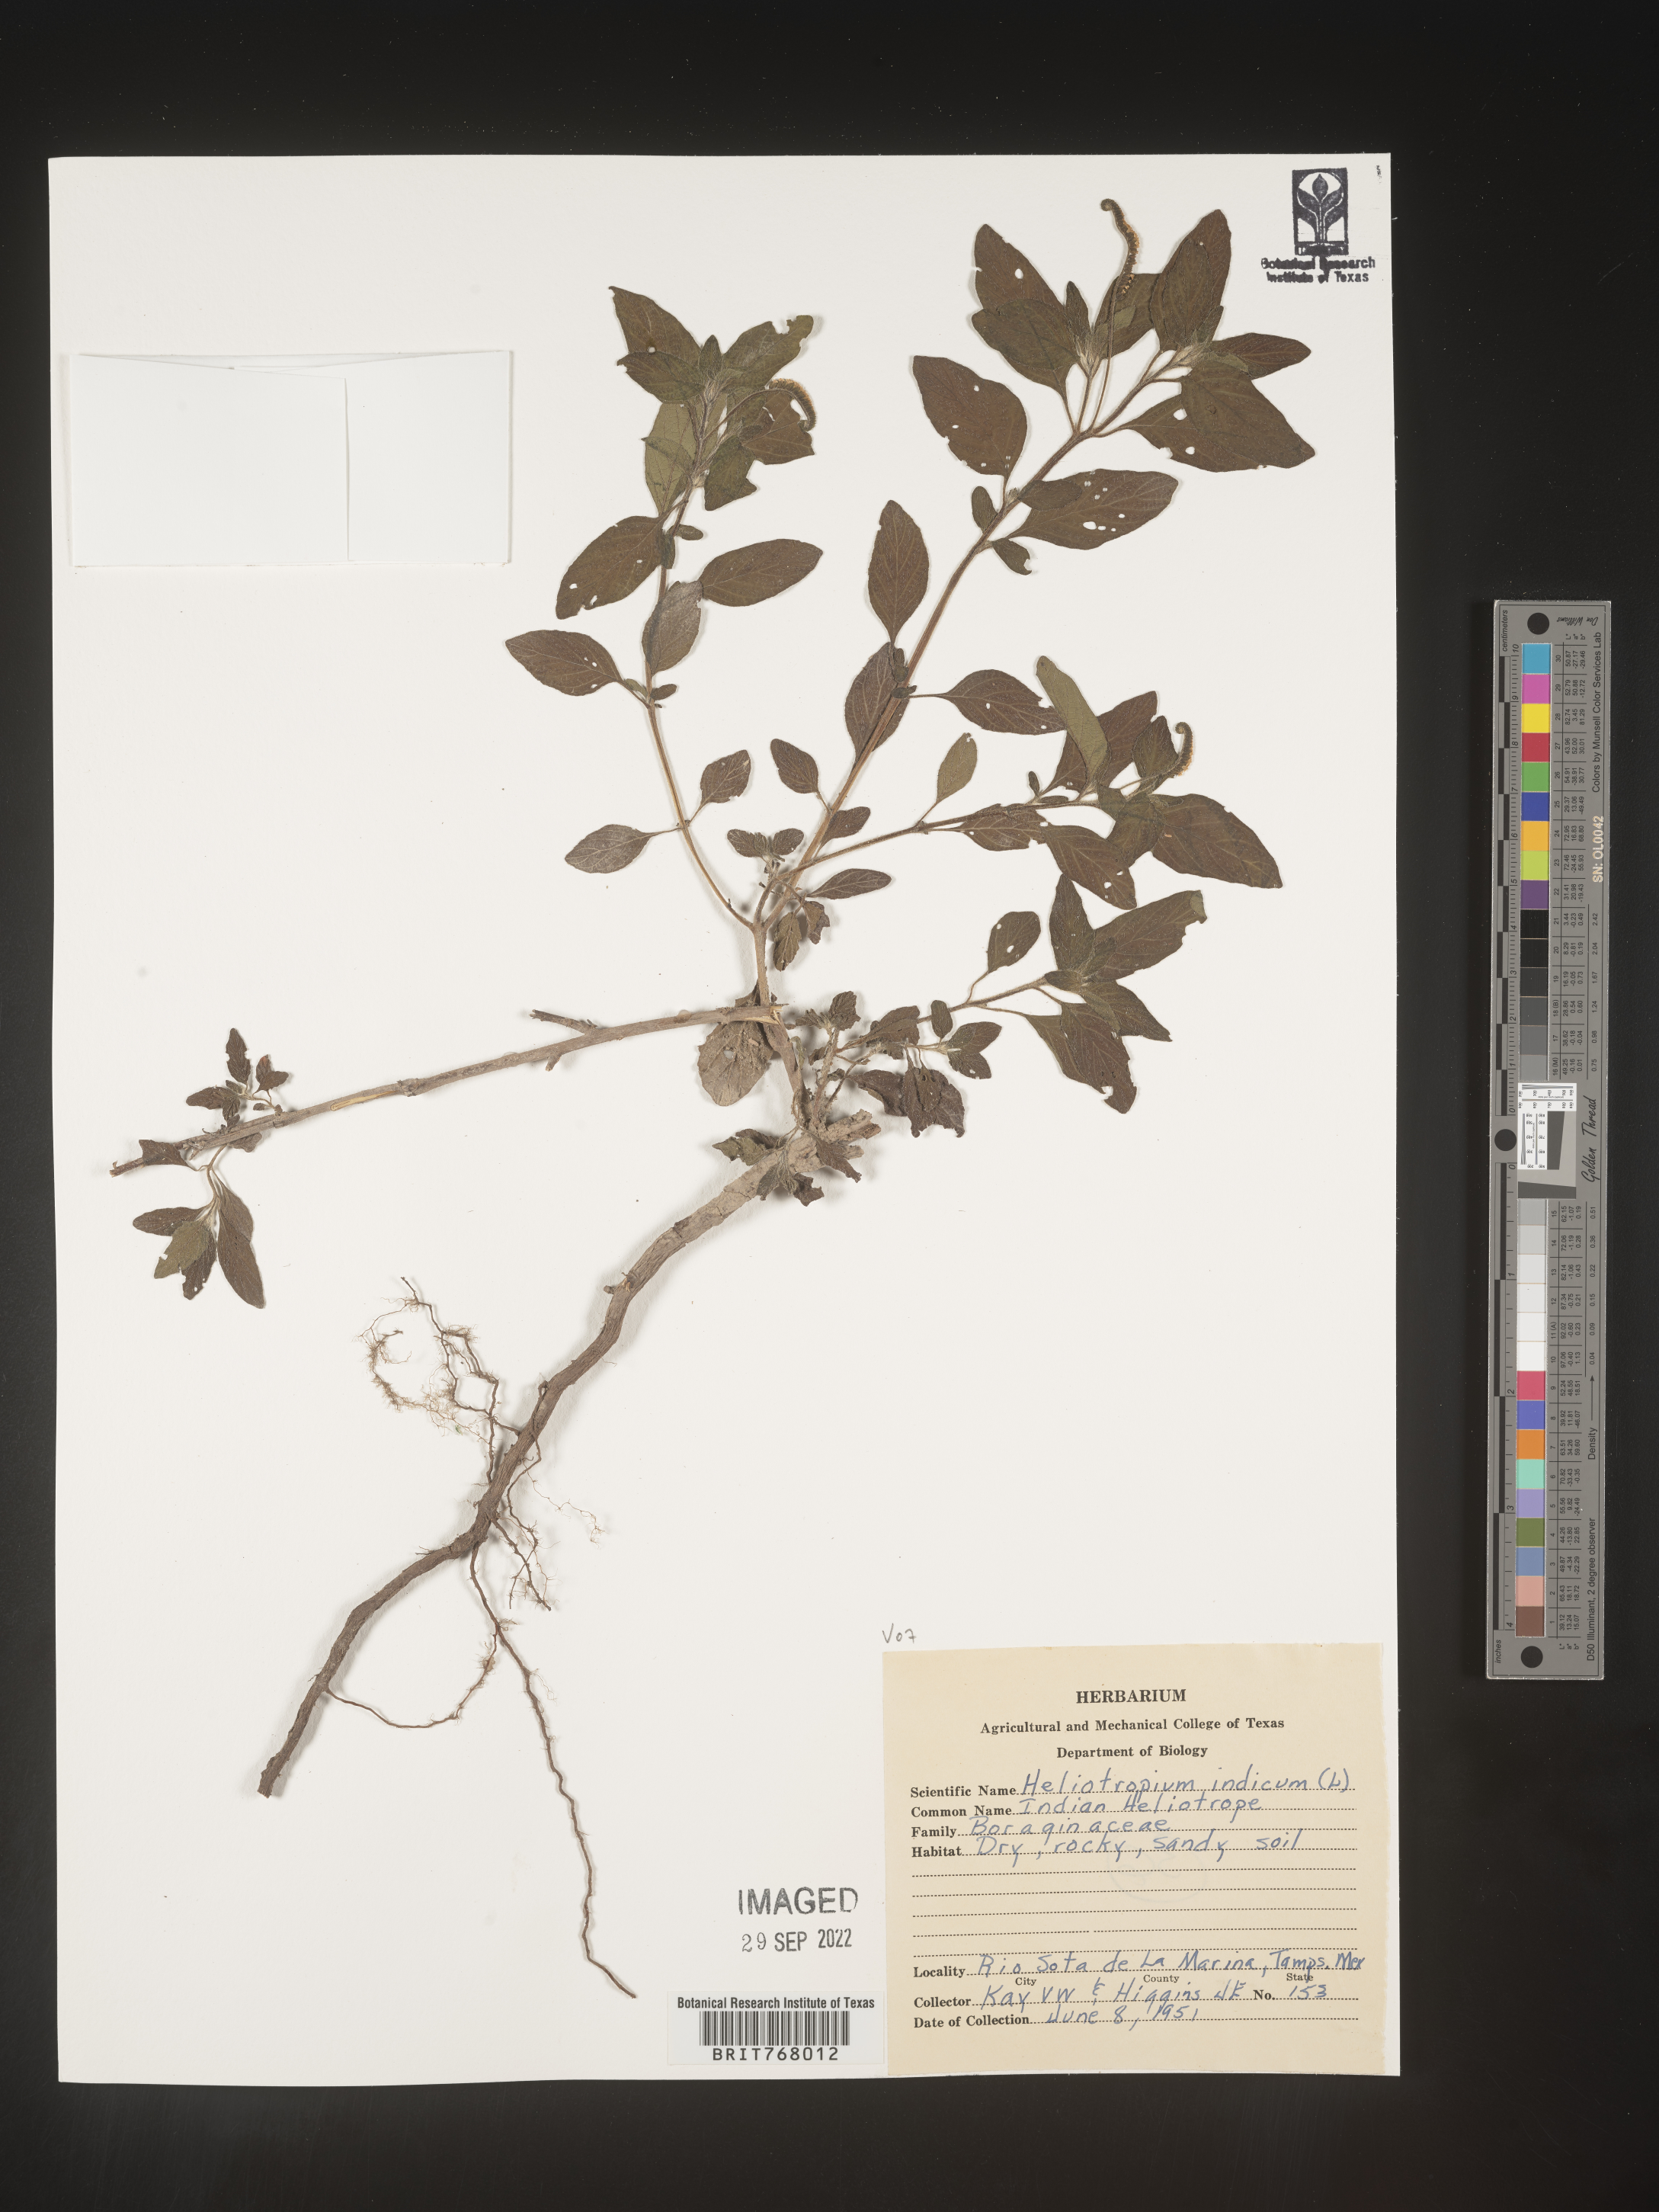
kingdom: Plantae
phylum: Tracheophyta
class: Magnoliopsida
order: Boraginales
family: Heliotropiaceae
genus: Heliotropium
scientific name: Heliotropium
